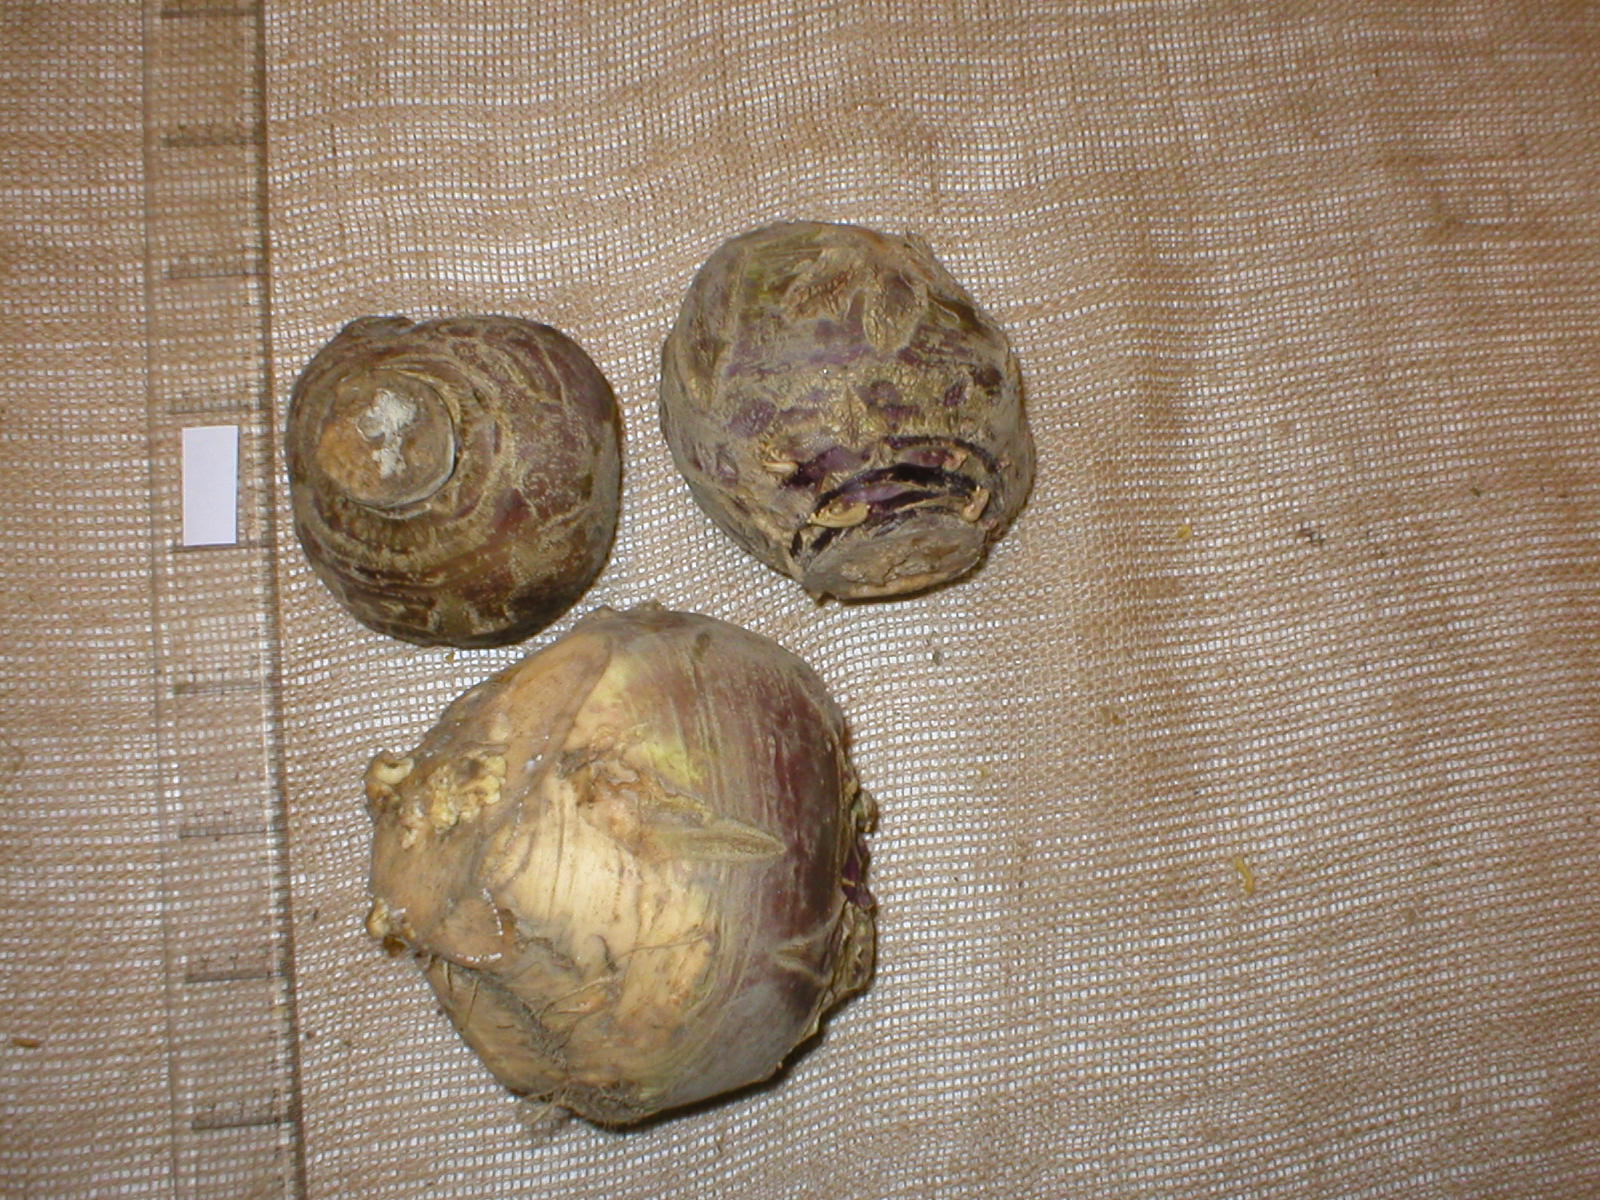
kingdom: Plantae
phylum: Tracheophyta
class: Magnoliopsida
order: Brassicales
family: Brassicaceae
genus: Brassica
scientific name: Brassica napus
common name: Rape
